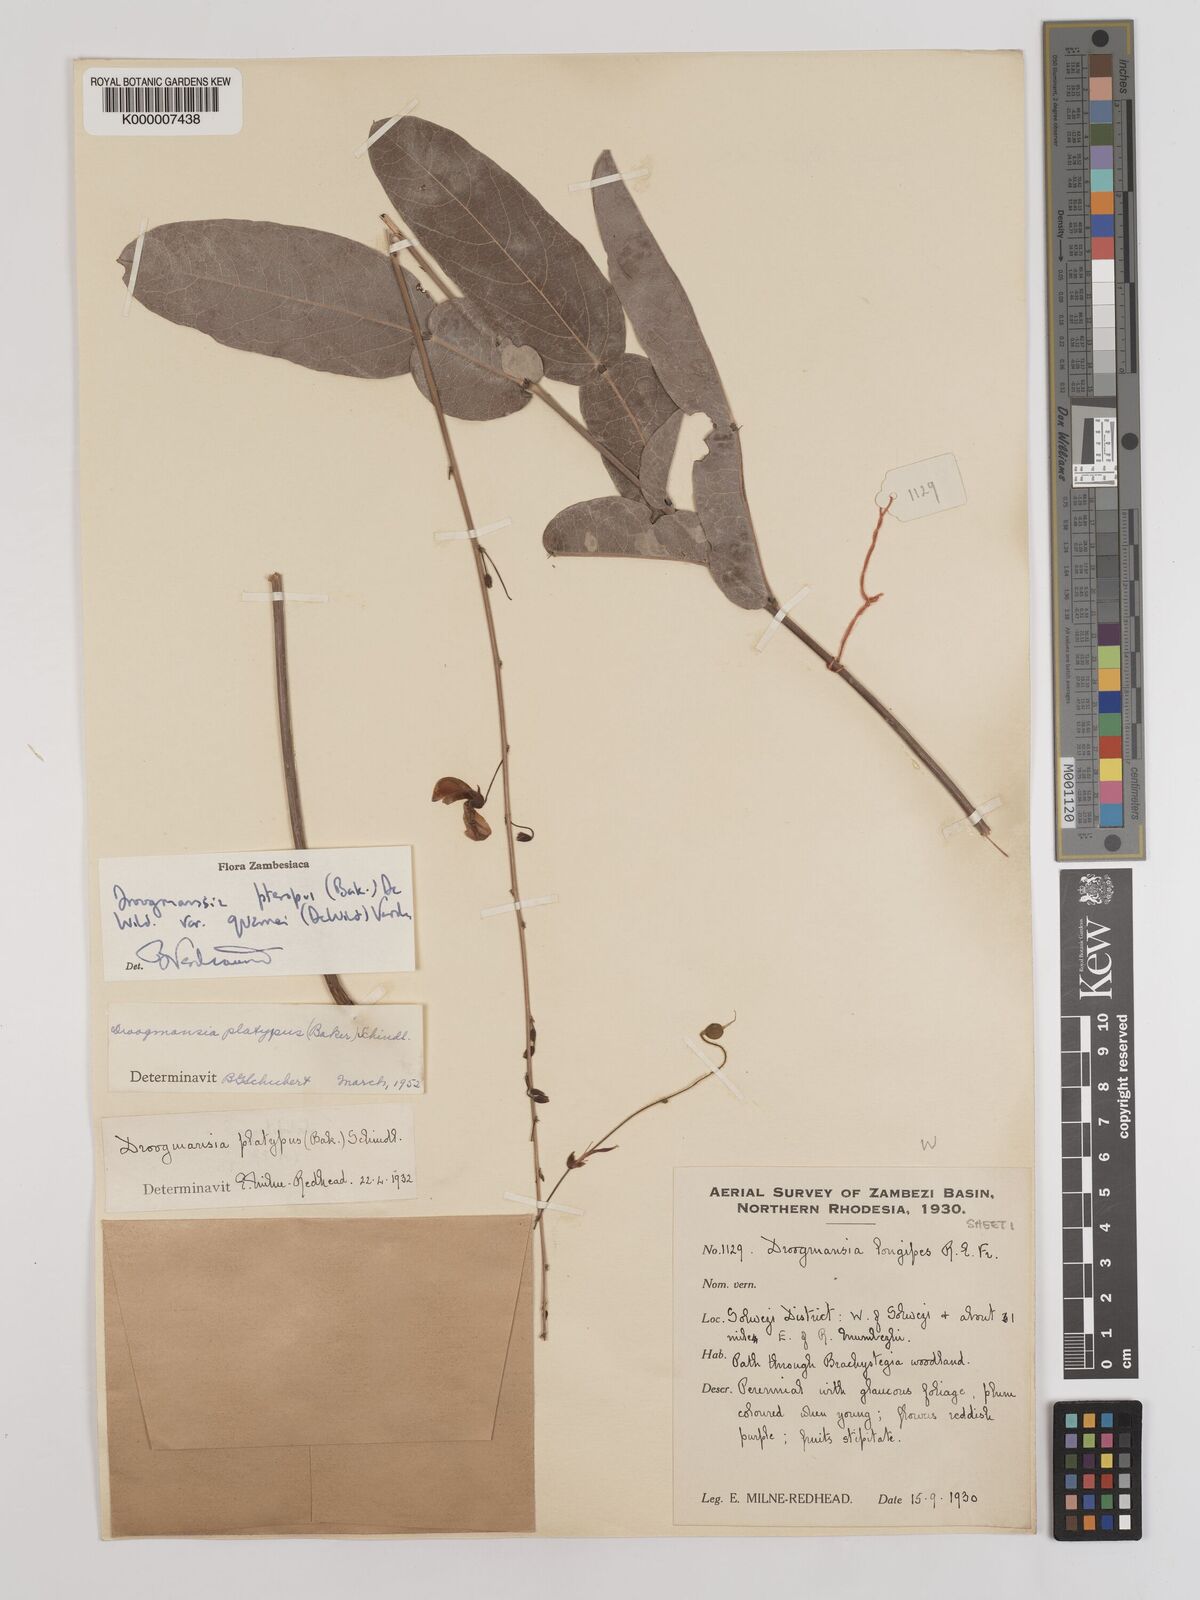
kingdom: Plantae
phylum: Tracheophyta
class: Magnoliopsida
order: Fabales
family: Fabaceae
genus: Droogmansia
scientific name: Droogmansia pteropus
